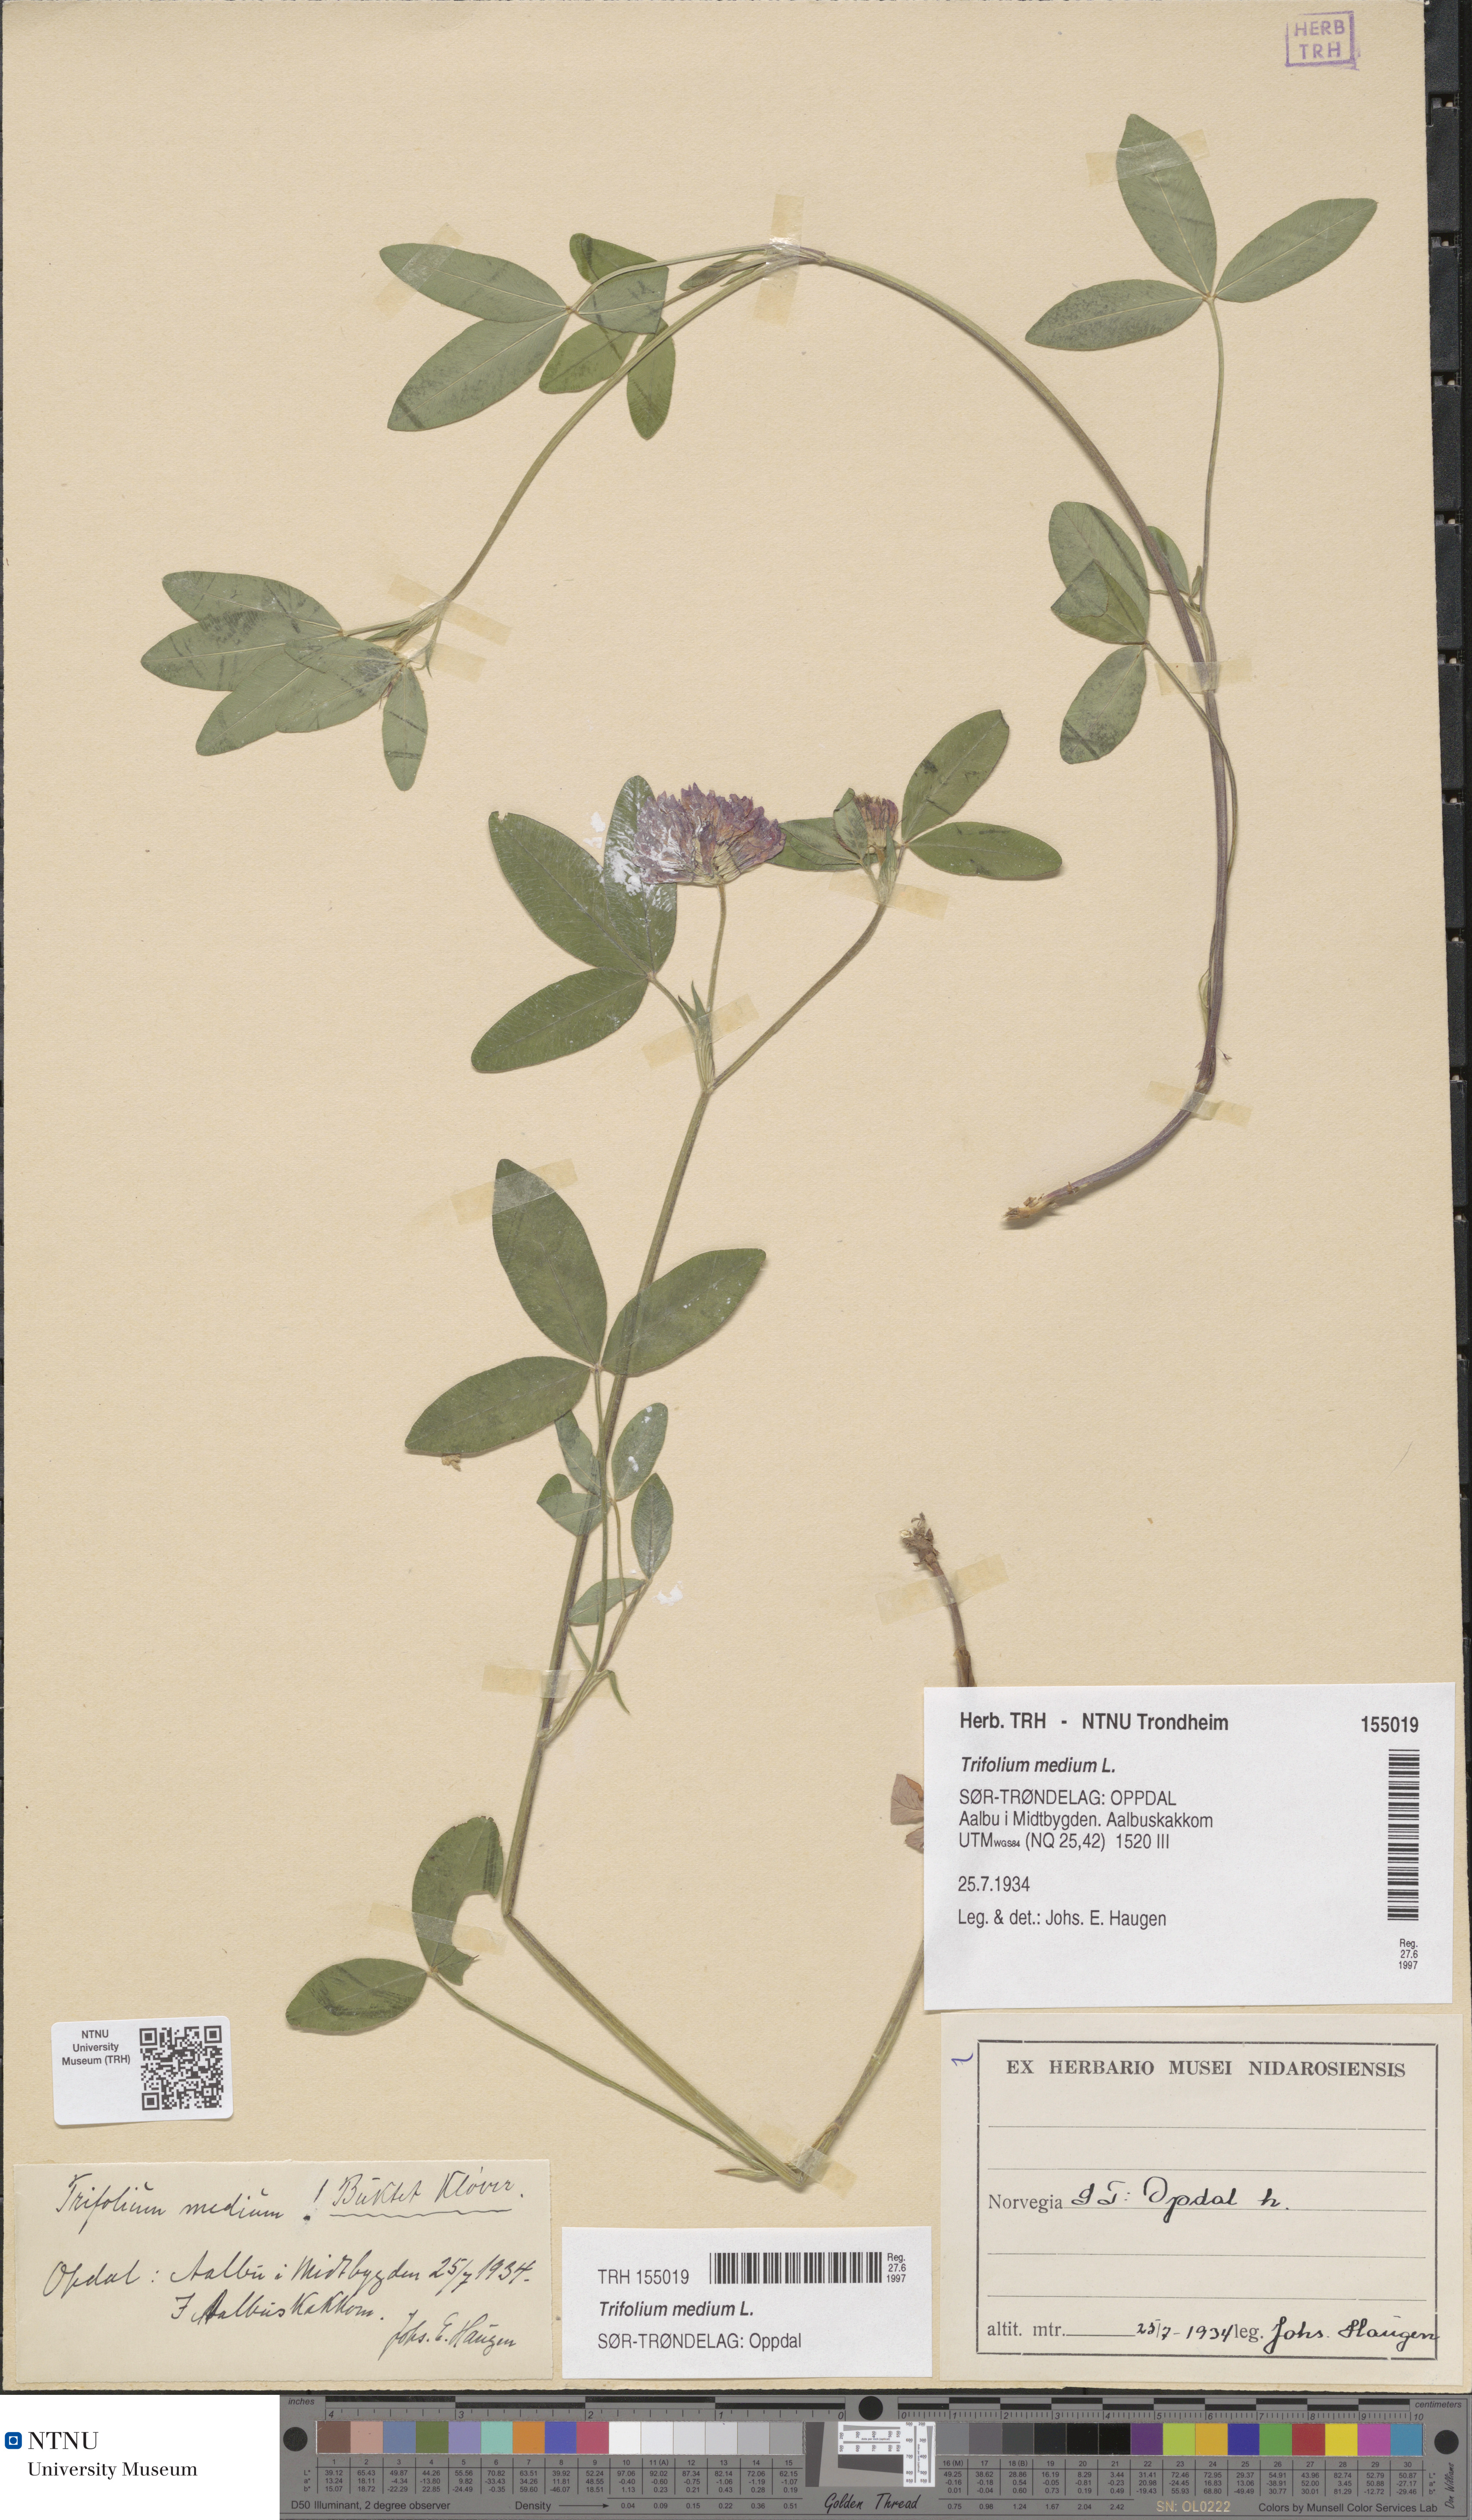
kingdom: Plantae
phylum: Tracheophyta
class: Magnoliopsida
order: Fabales
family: Fabaceae
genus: Trifolium
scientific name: Trifolium medium
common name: Zigzag clover
